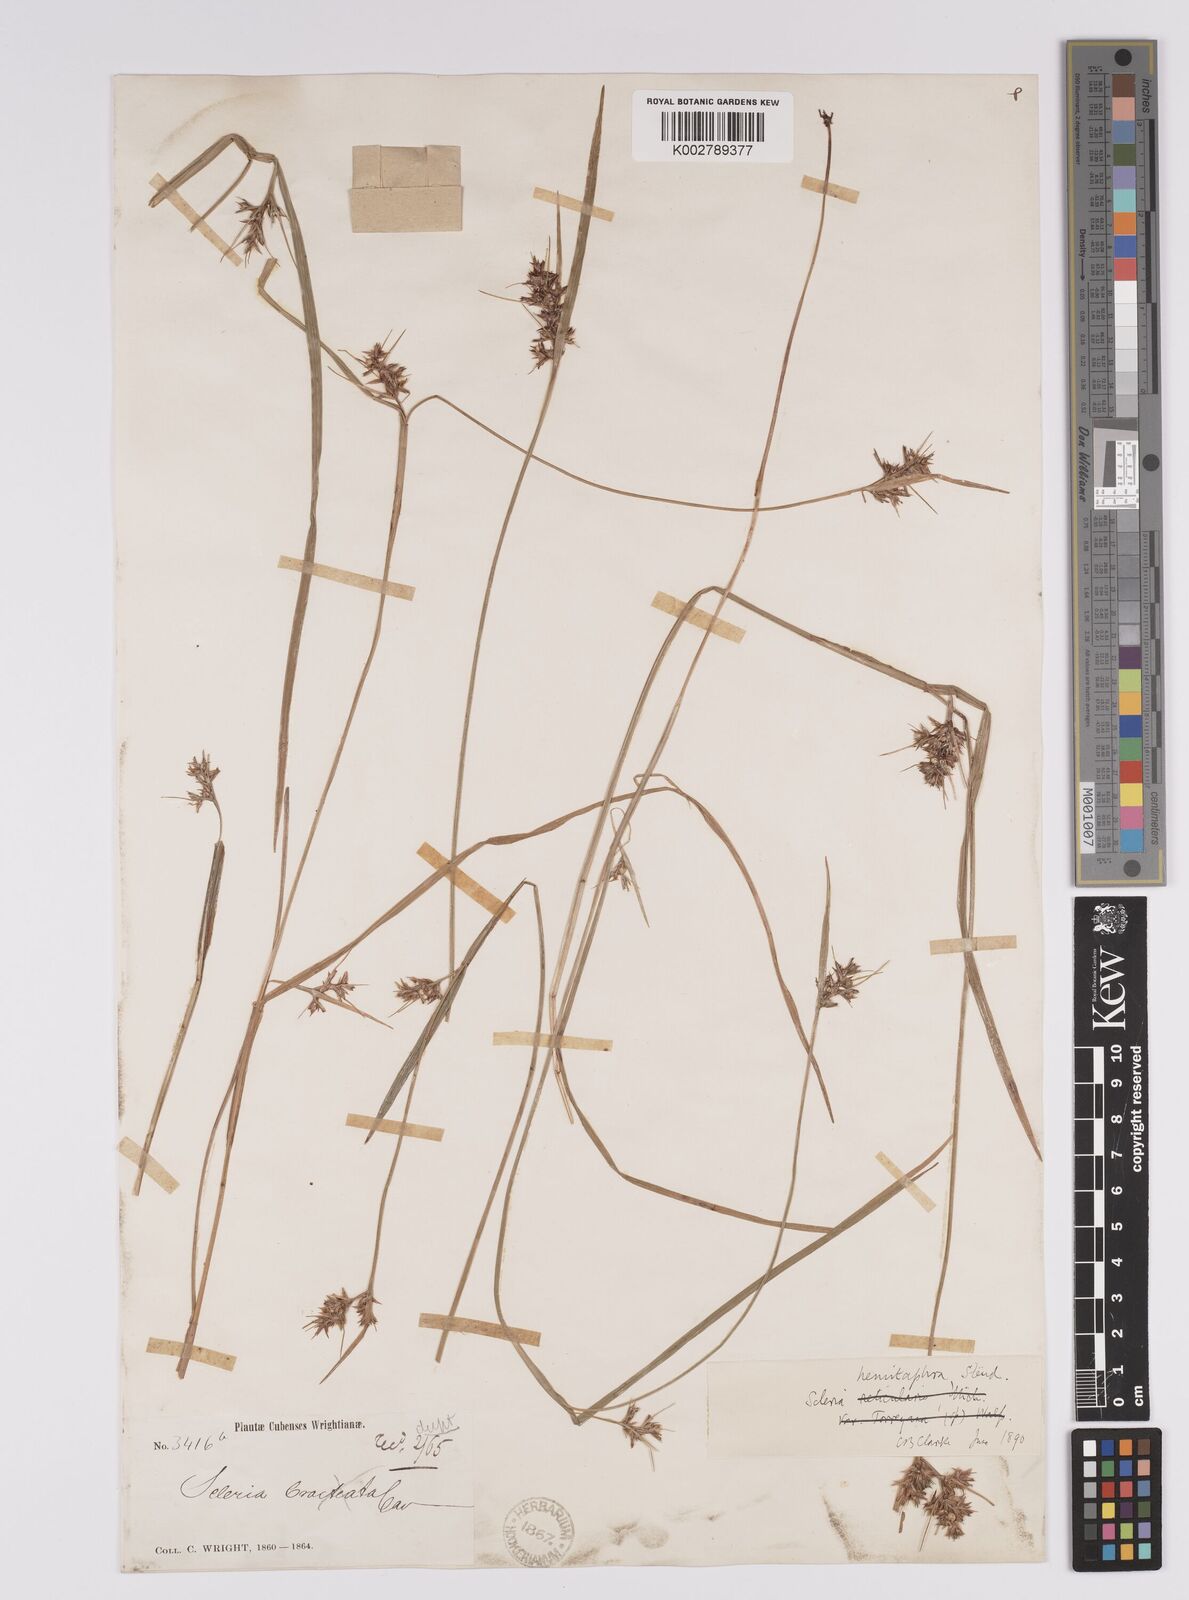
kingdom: Plantae
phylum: Tracheophyta
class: Liliopsida
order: Poales
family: Cyperaceae
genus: Scleria
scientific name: Scleria muehlenbergii
